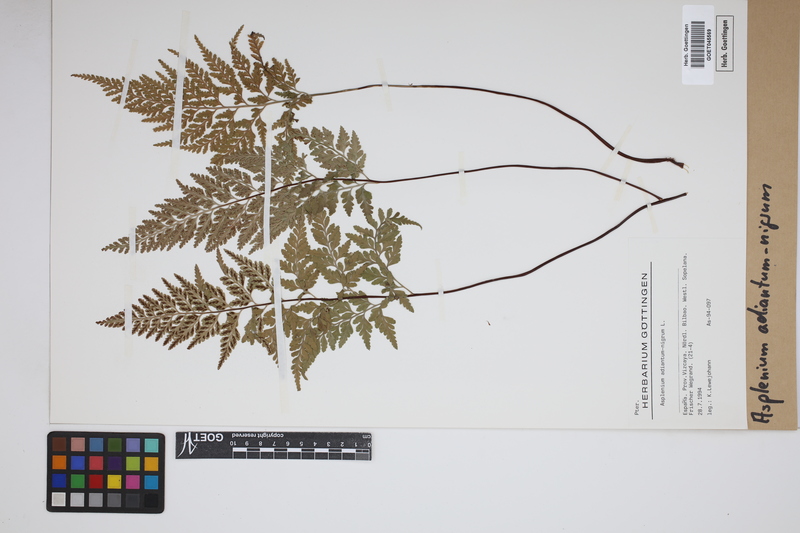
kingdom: Plantae
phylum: Tracheophyta
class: Polypodiopsida
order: Polypodiales
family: Aspleniaceae
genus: Asplenium
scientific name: Asplenium adiantum-nigrum
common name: Black spleenwort
